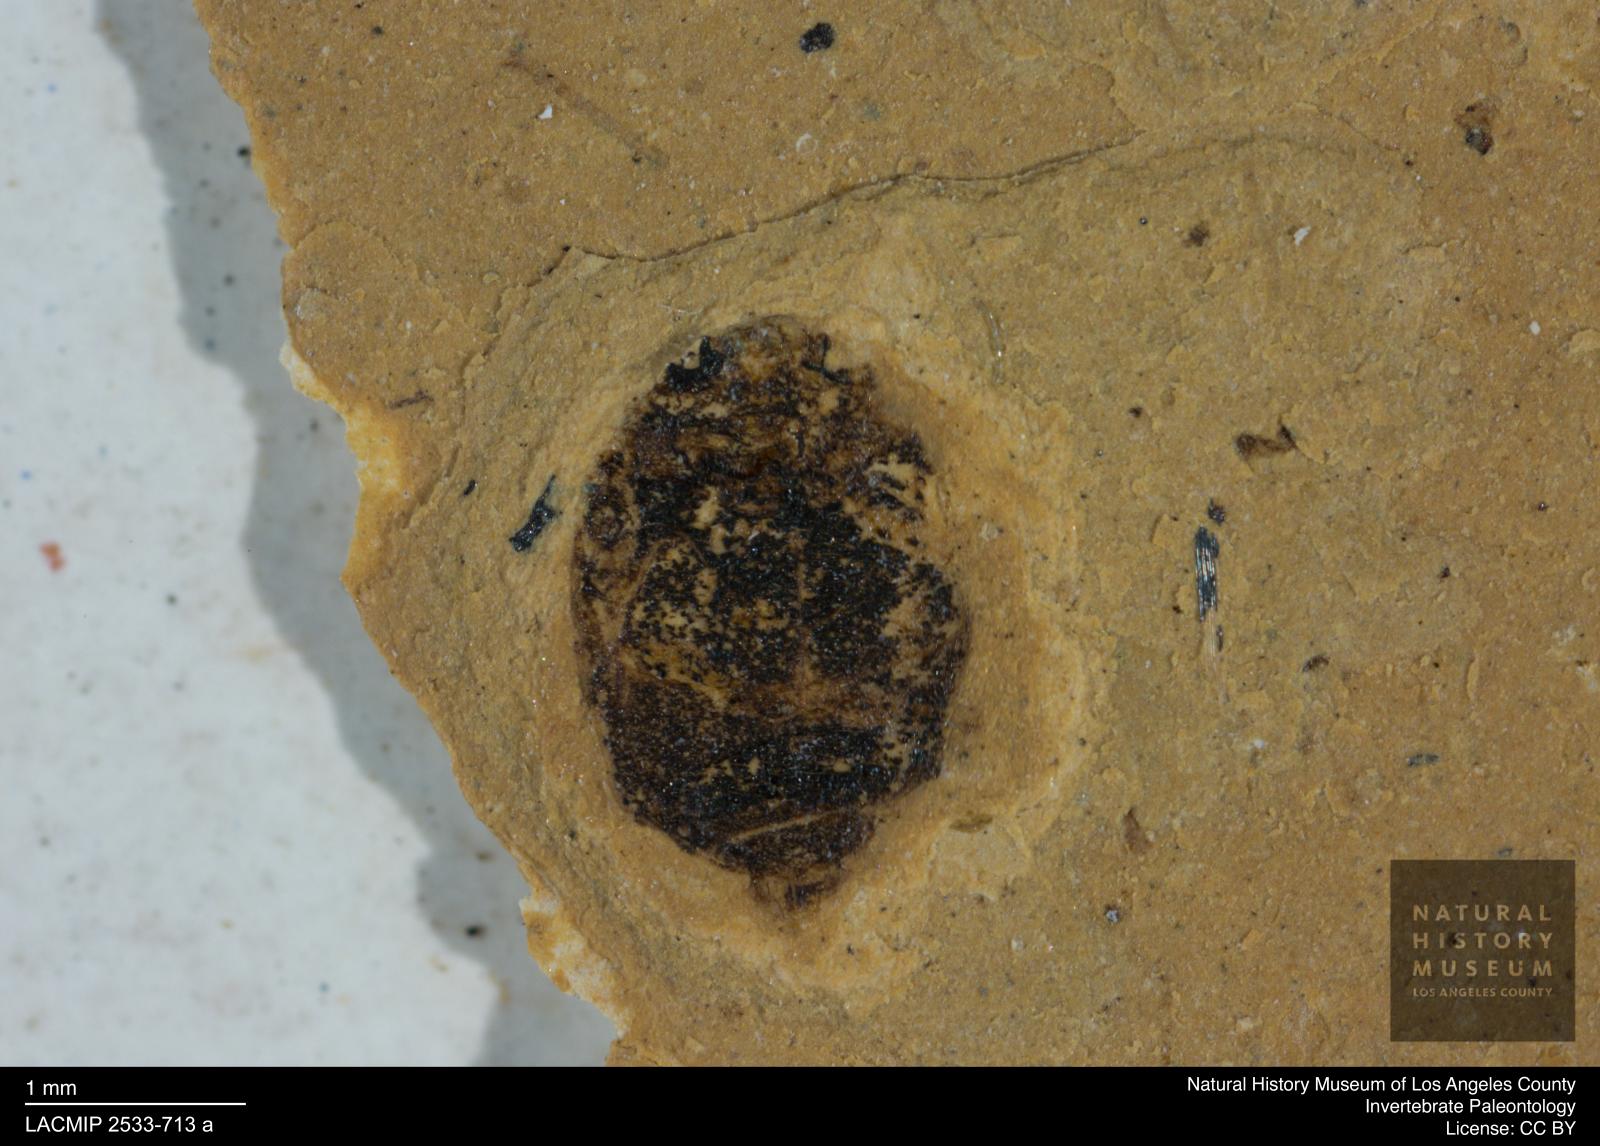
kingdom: Animalia
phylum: Arthropoda
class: Insecta
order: Coleoptera
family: Dytiscidae
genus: Oreodytes
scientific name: Oreodytes cryptolineatus
